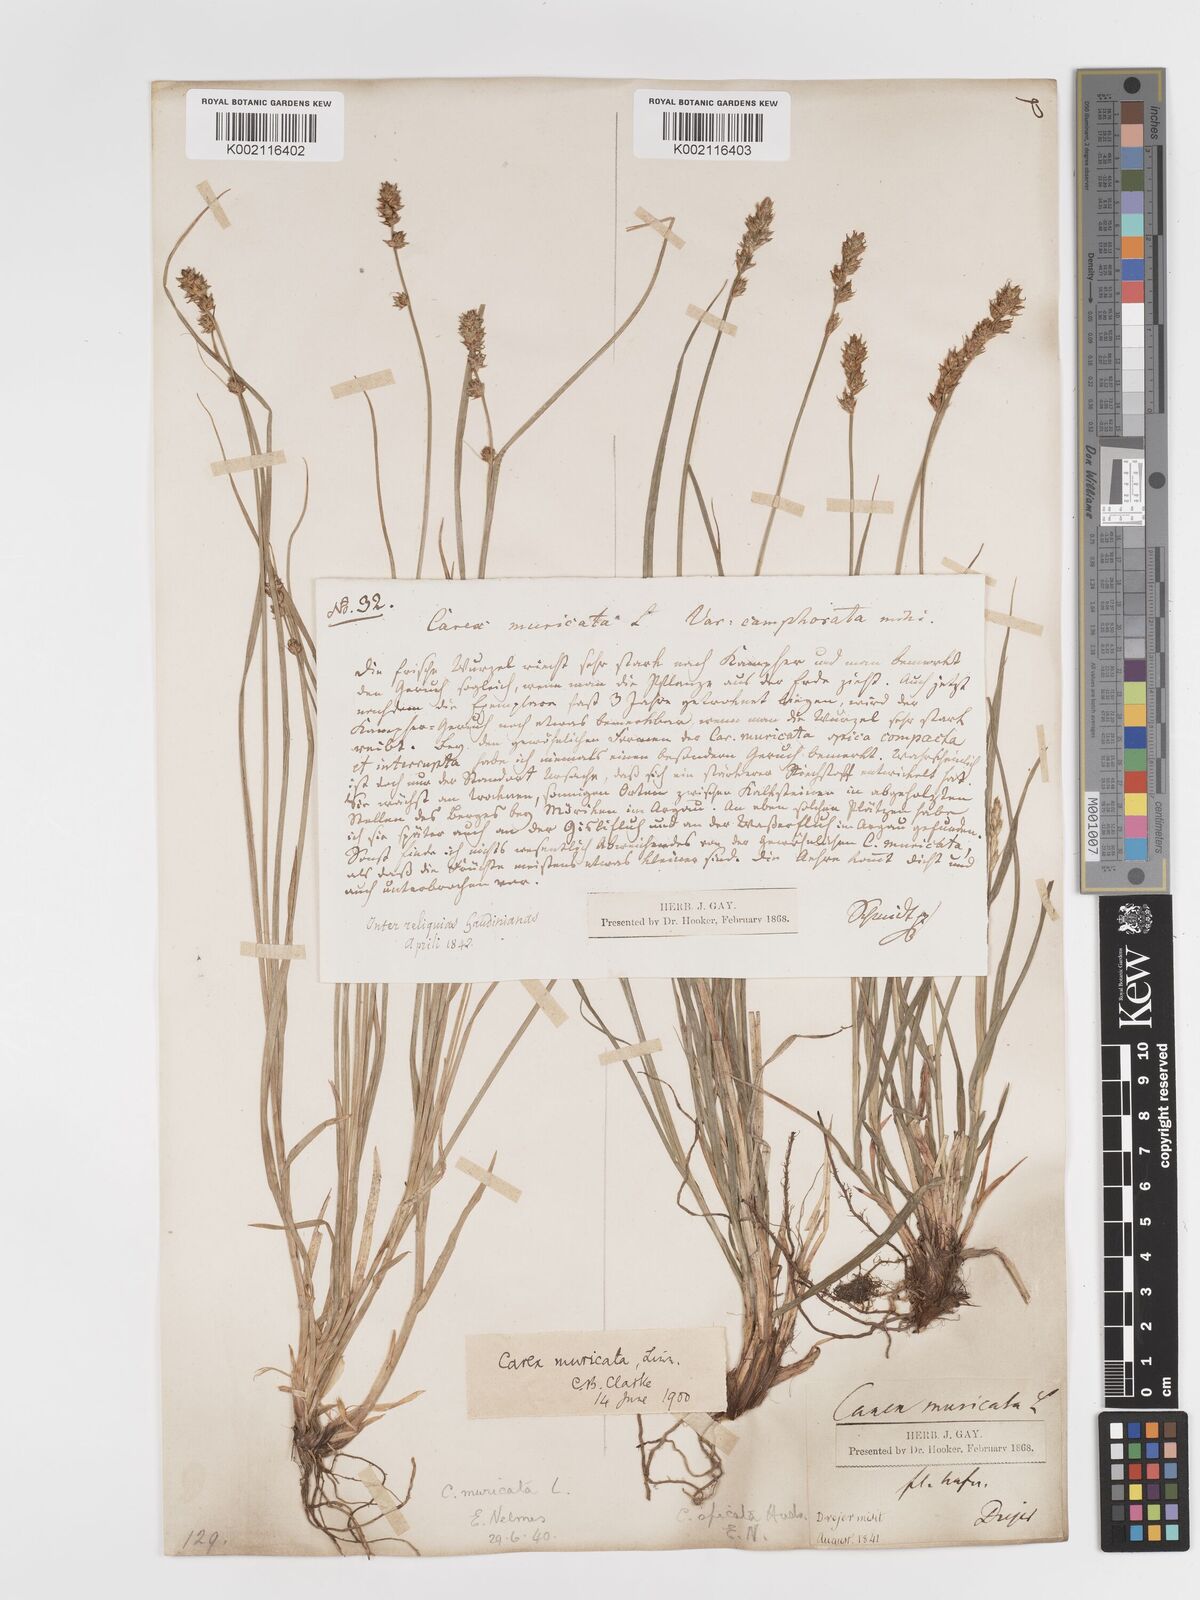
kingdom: Plantae
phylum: Tracheophyta
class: Liliopsida
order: Poales
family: Cyperaceae
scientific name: Cyperaceae
